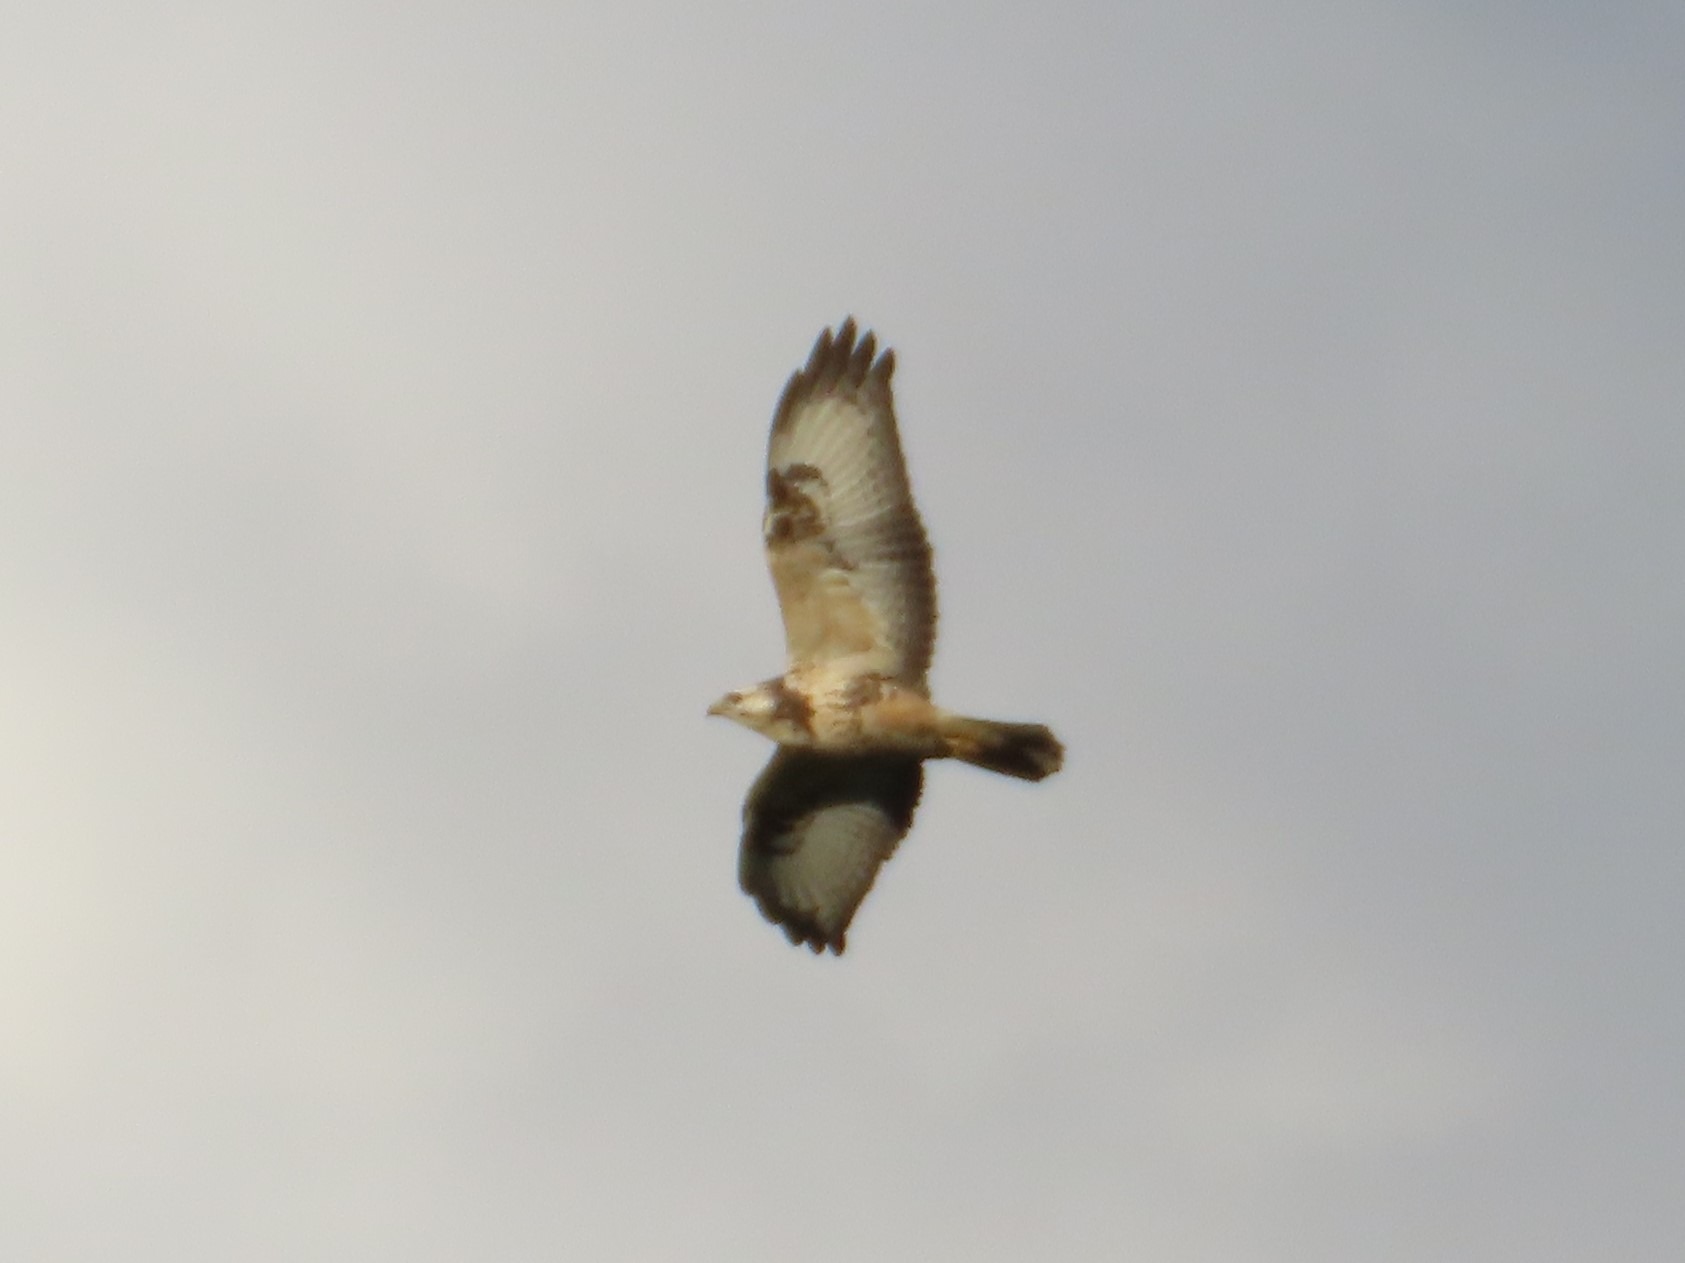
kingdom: Animalia
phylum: Chordata
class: Aves
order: Accipitriformes
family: Accipitridae
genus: Buteo
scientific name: Buteo buteo
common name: Musvåge
